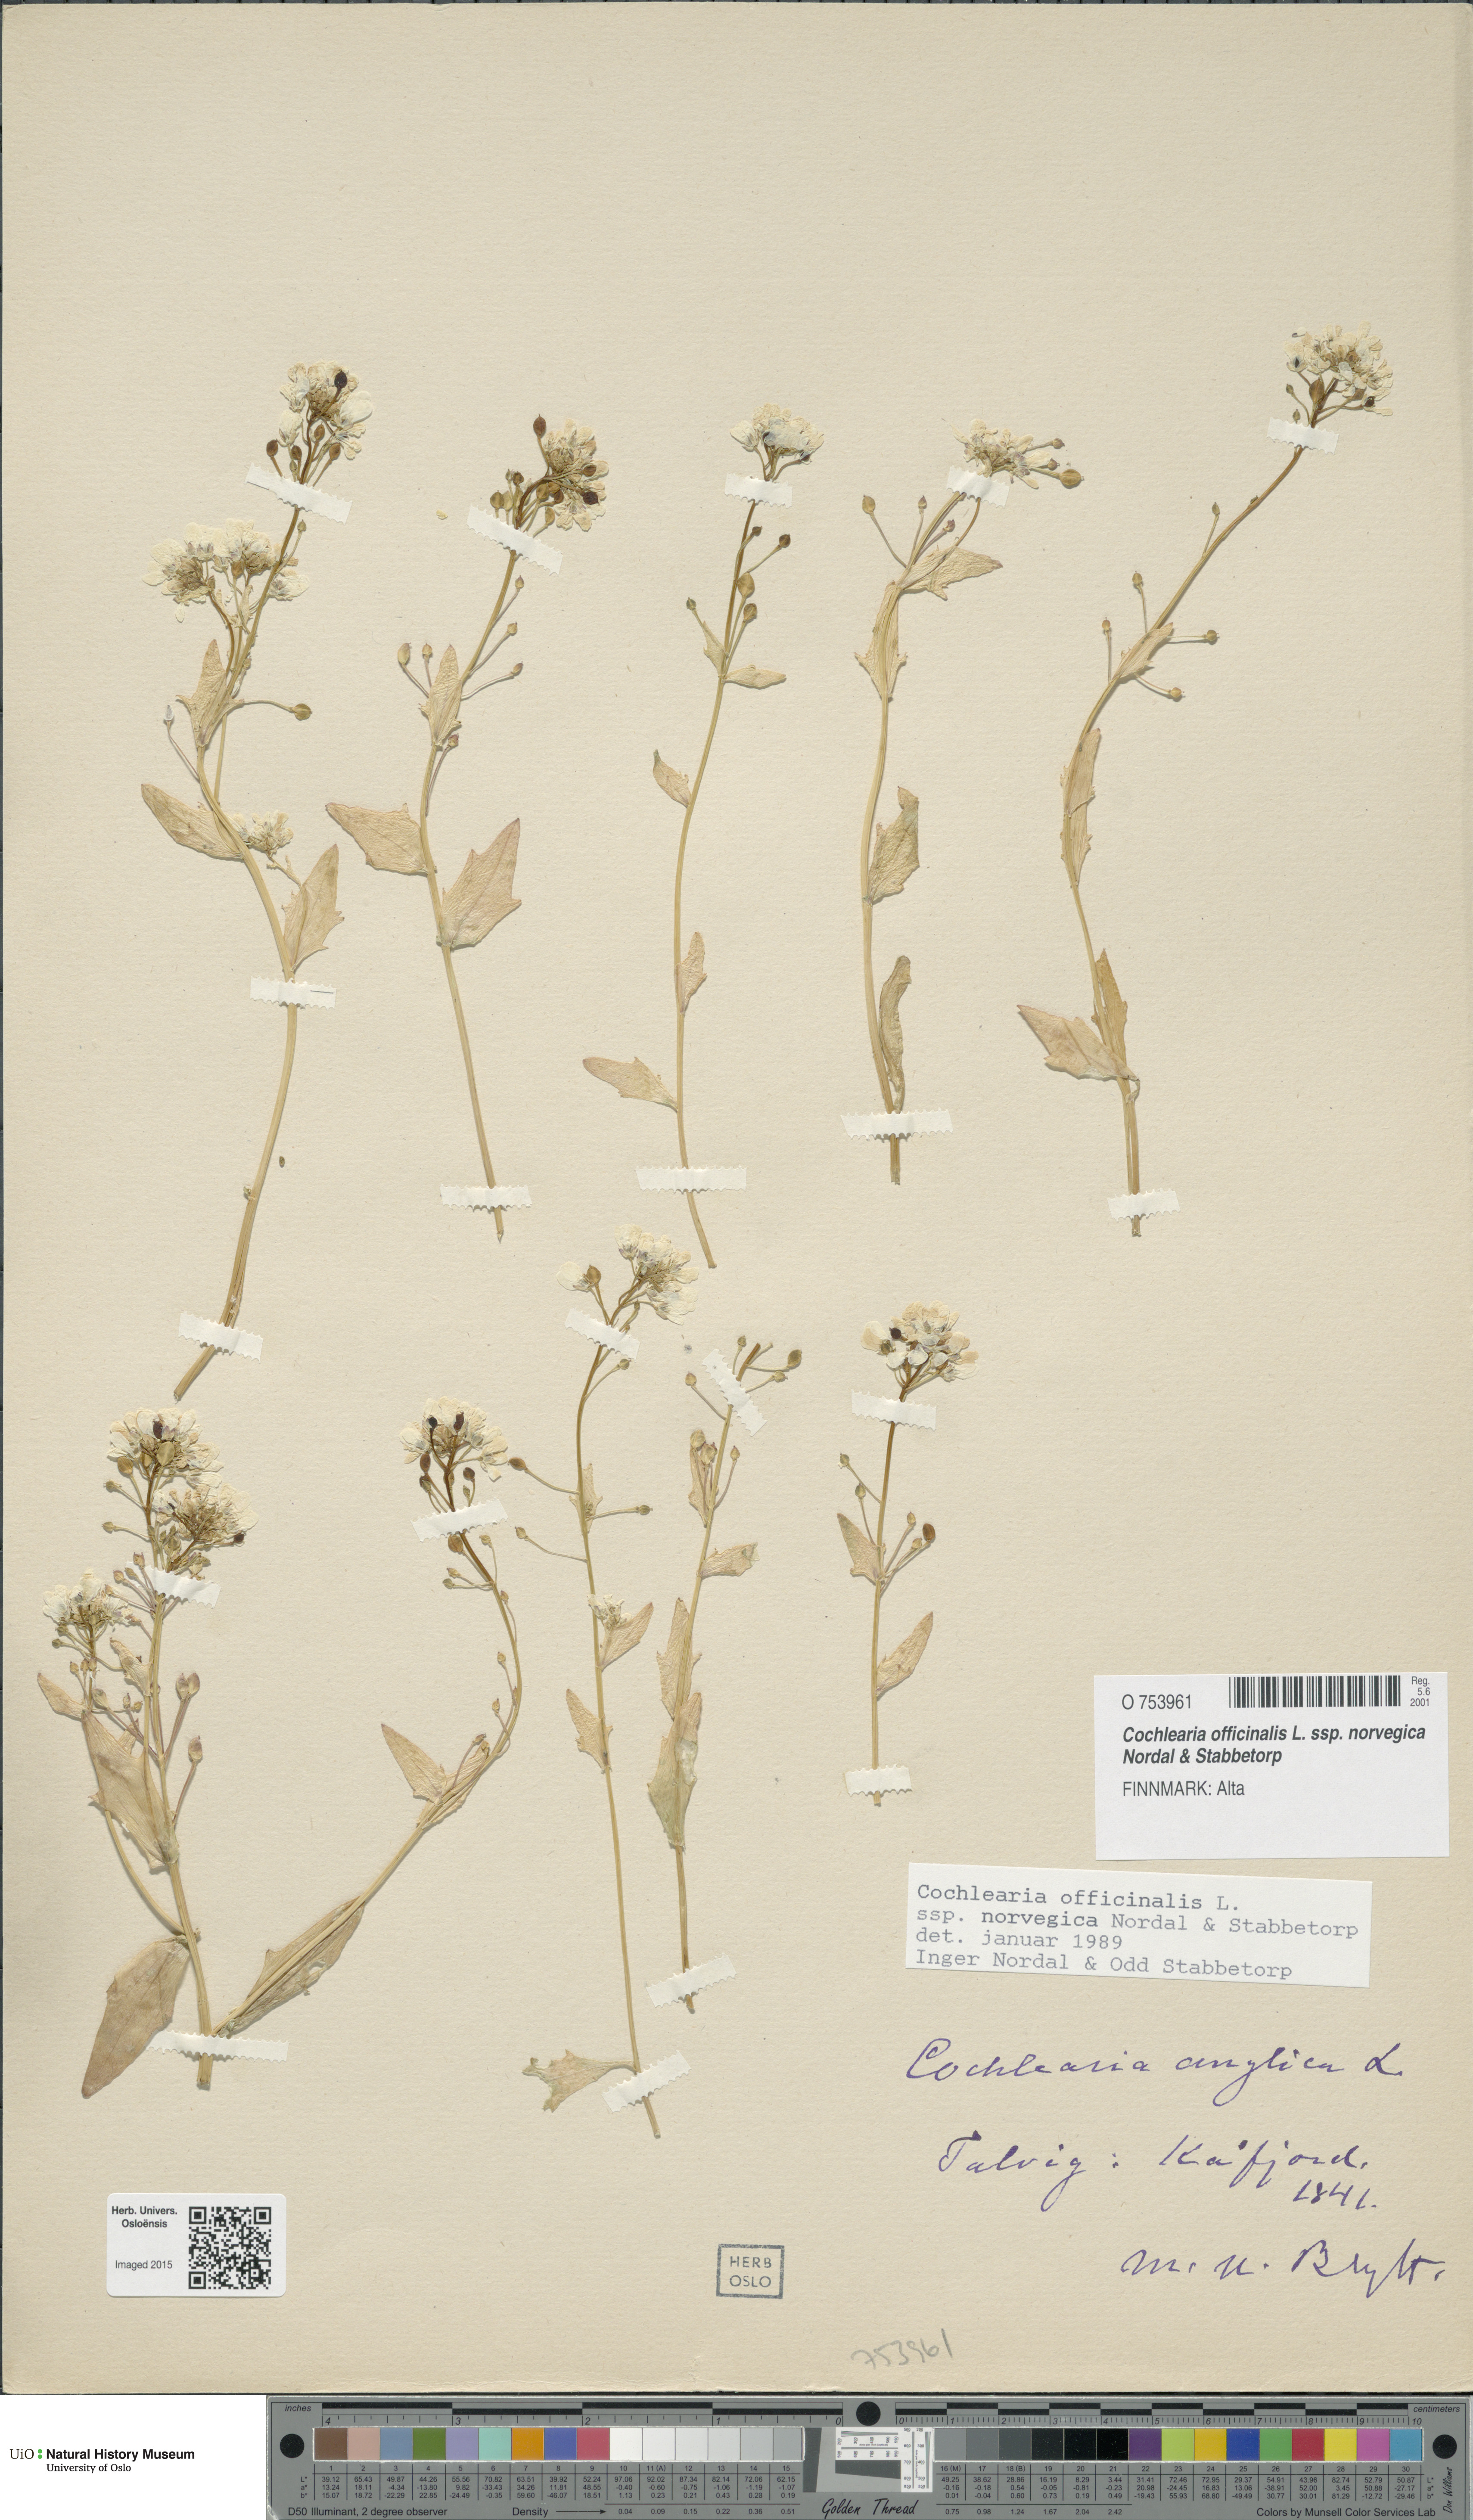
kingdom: Plantae
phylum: Tracheophyta
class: Magnoliopsida
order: Brassicales
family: Brassicaceae
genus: Cochlearia
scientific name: Cochlearia officinalis
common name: Scurvy-grass
